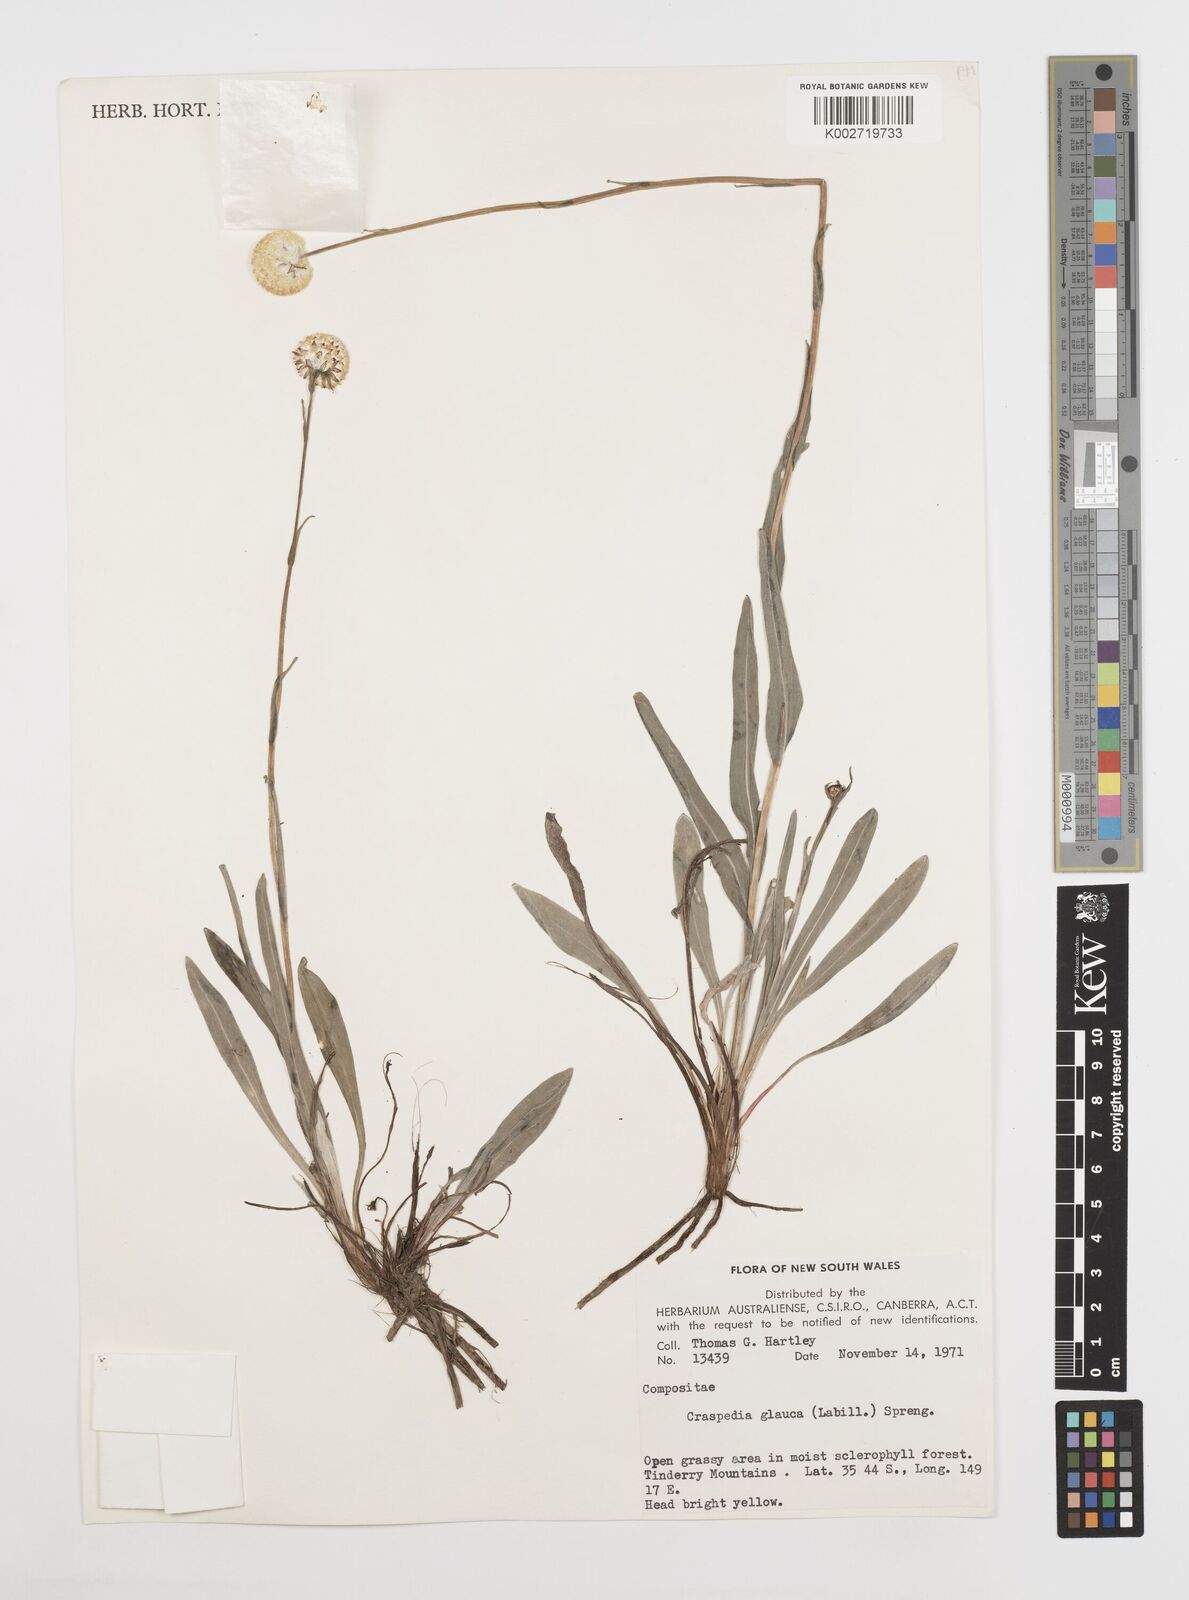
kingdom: Plantae
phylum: Tracheophyta
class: Magnoliopsida
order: Asterales
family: Asteraceae
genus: Craspedia
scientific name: Craspedia glauca
